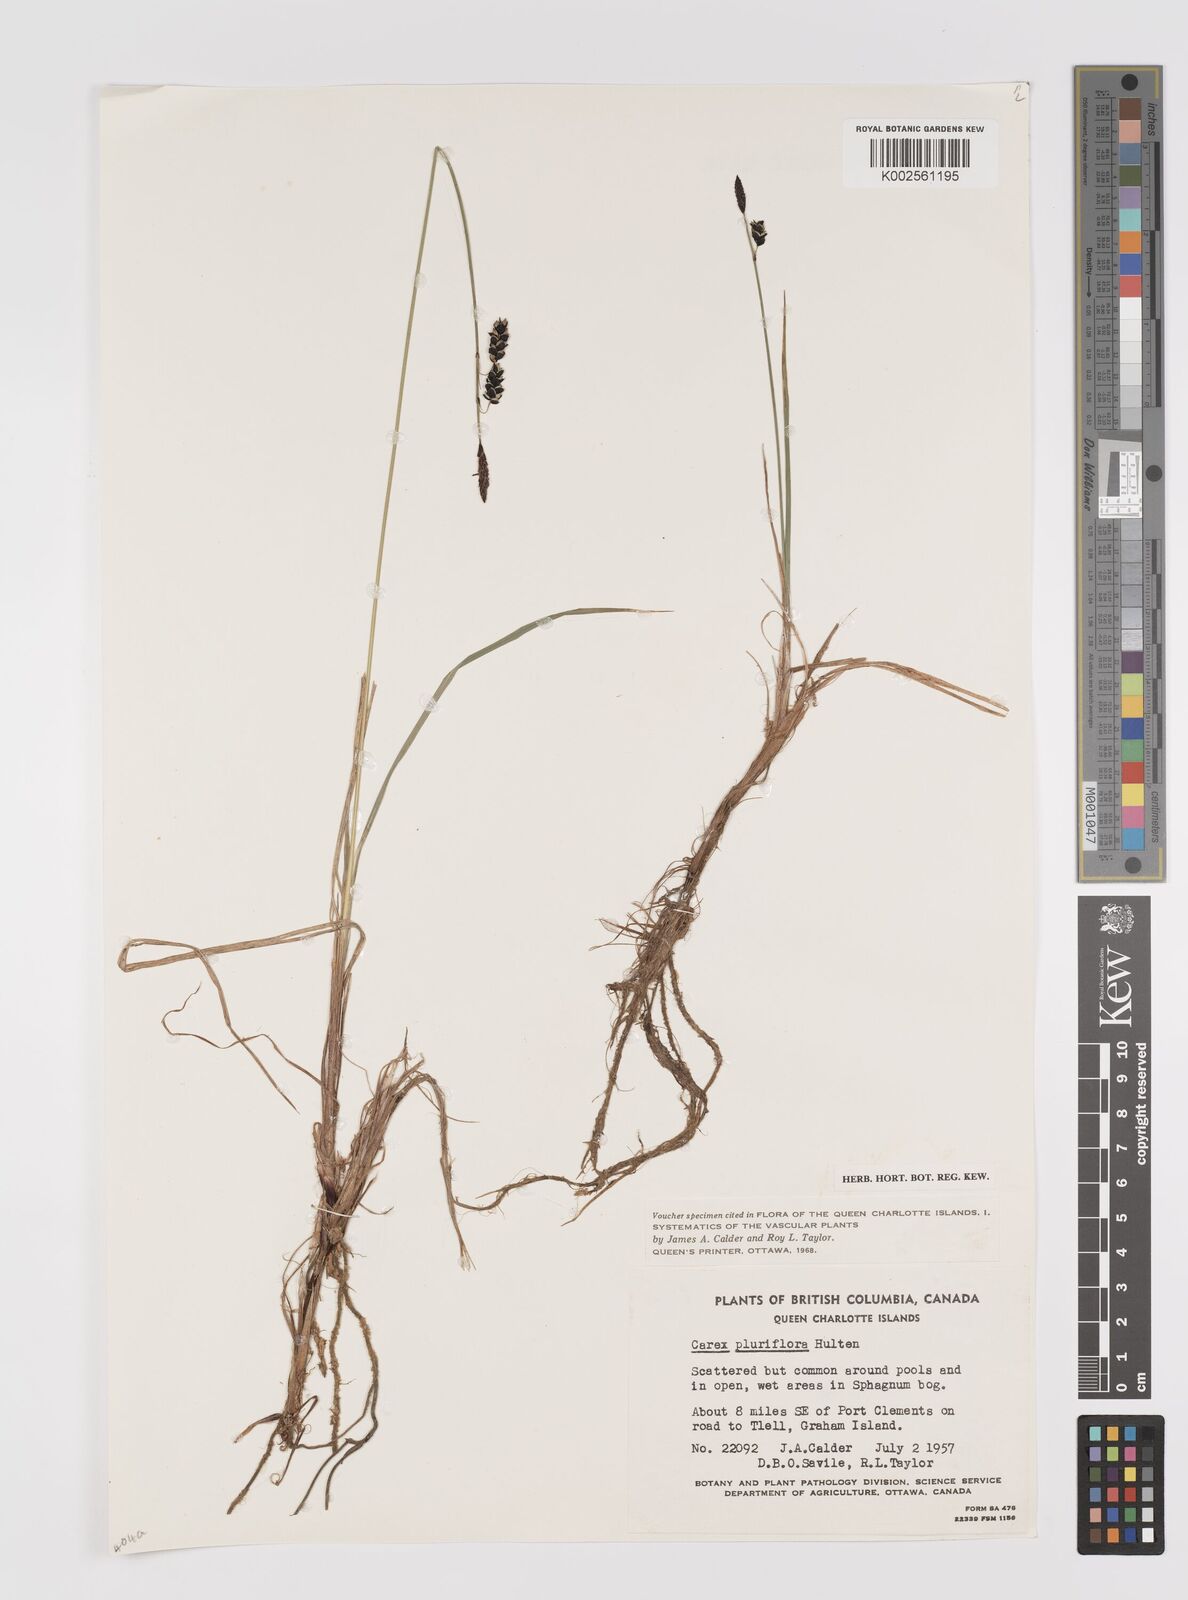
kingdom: Plantae
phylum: Tracheophyta
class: Liliopsida
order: Poales
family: Cyperaceae
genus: Carex
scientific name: Carex pluriflora
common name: Manyflower sedge
